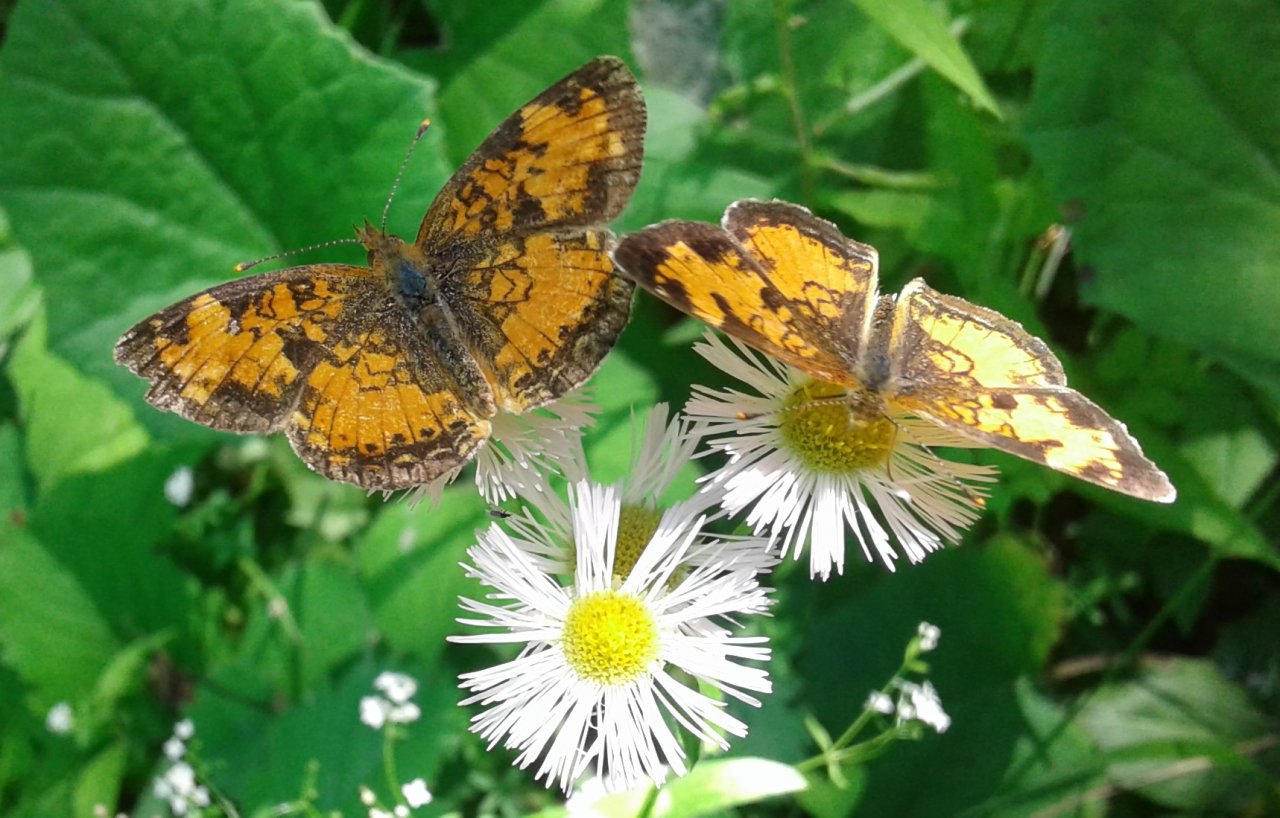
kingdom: Animalia
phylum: Arthropoda
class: Insecta
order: Lepidoptera
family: Nymphalidae
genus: Phyciodes
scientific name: Phyciodes tharos
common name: Northern Crescent
